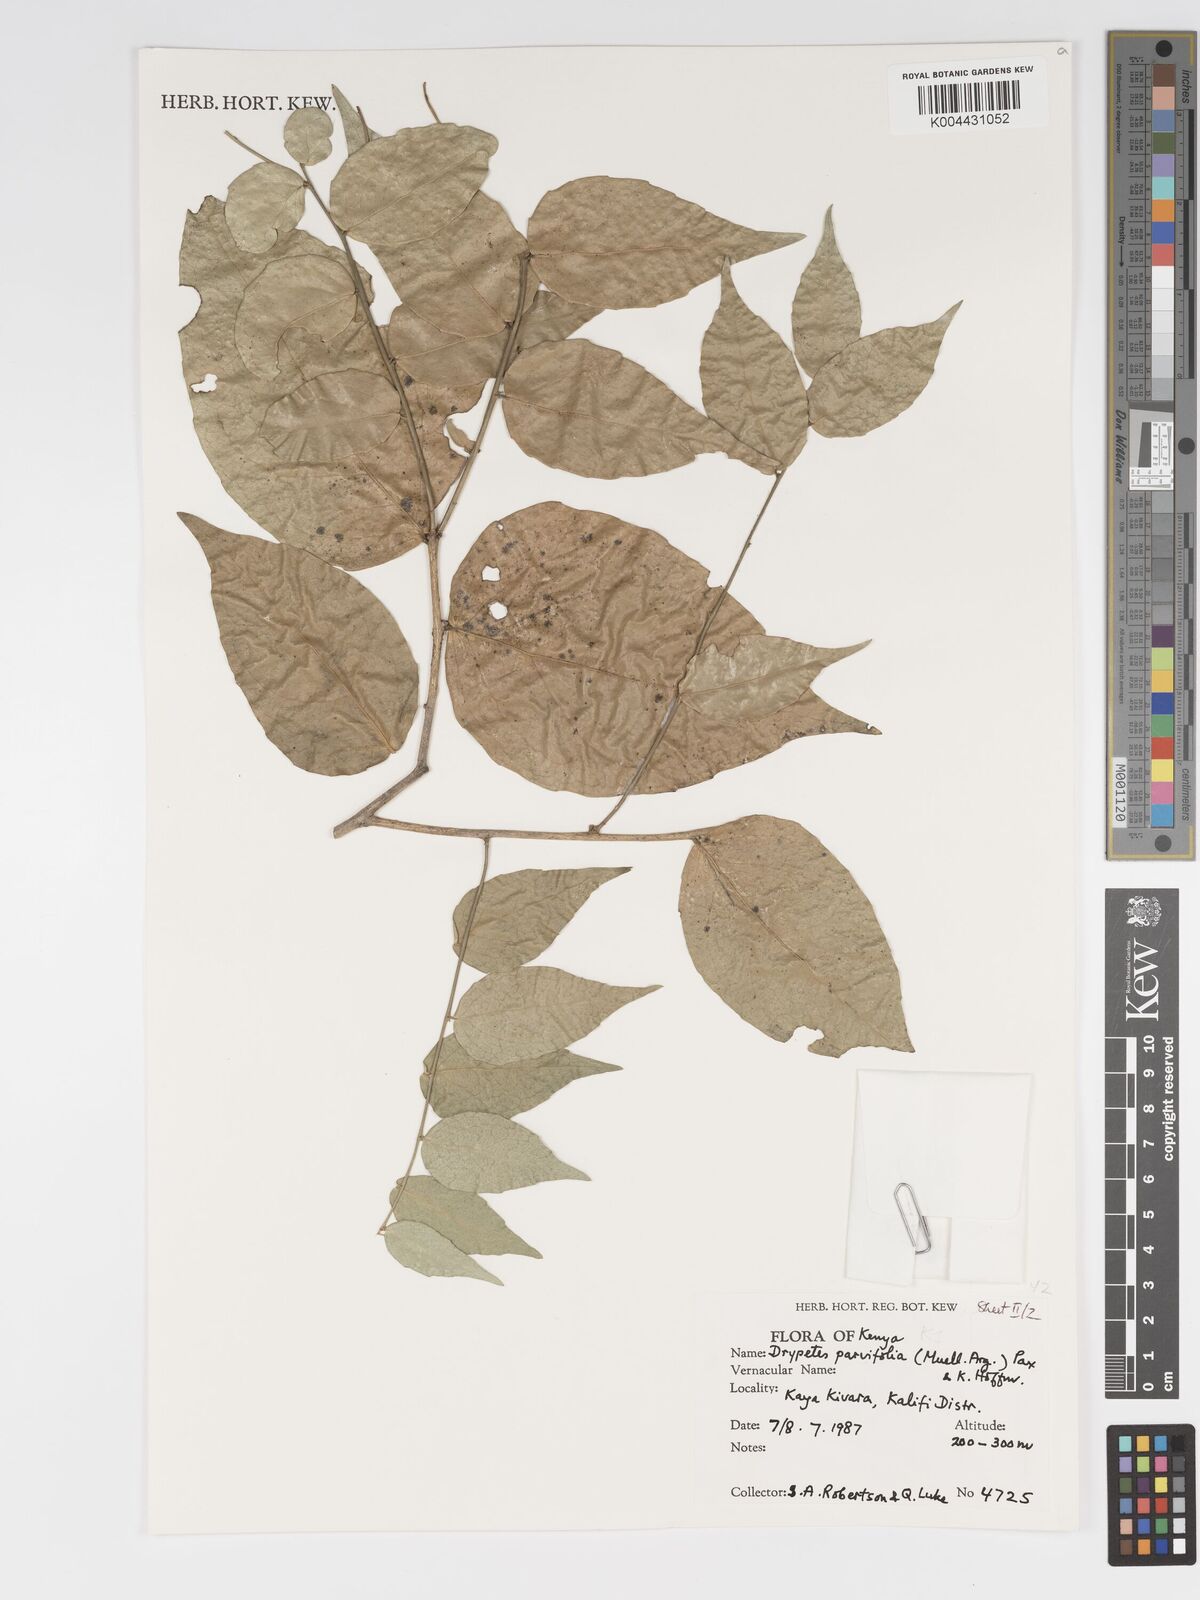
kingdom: Plantae
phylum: Tracheophyta
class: Magnoliopsida
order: Malpighiales
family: Putranjivaceae
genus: Drypetes
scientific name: Drypetes parvifolia
